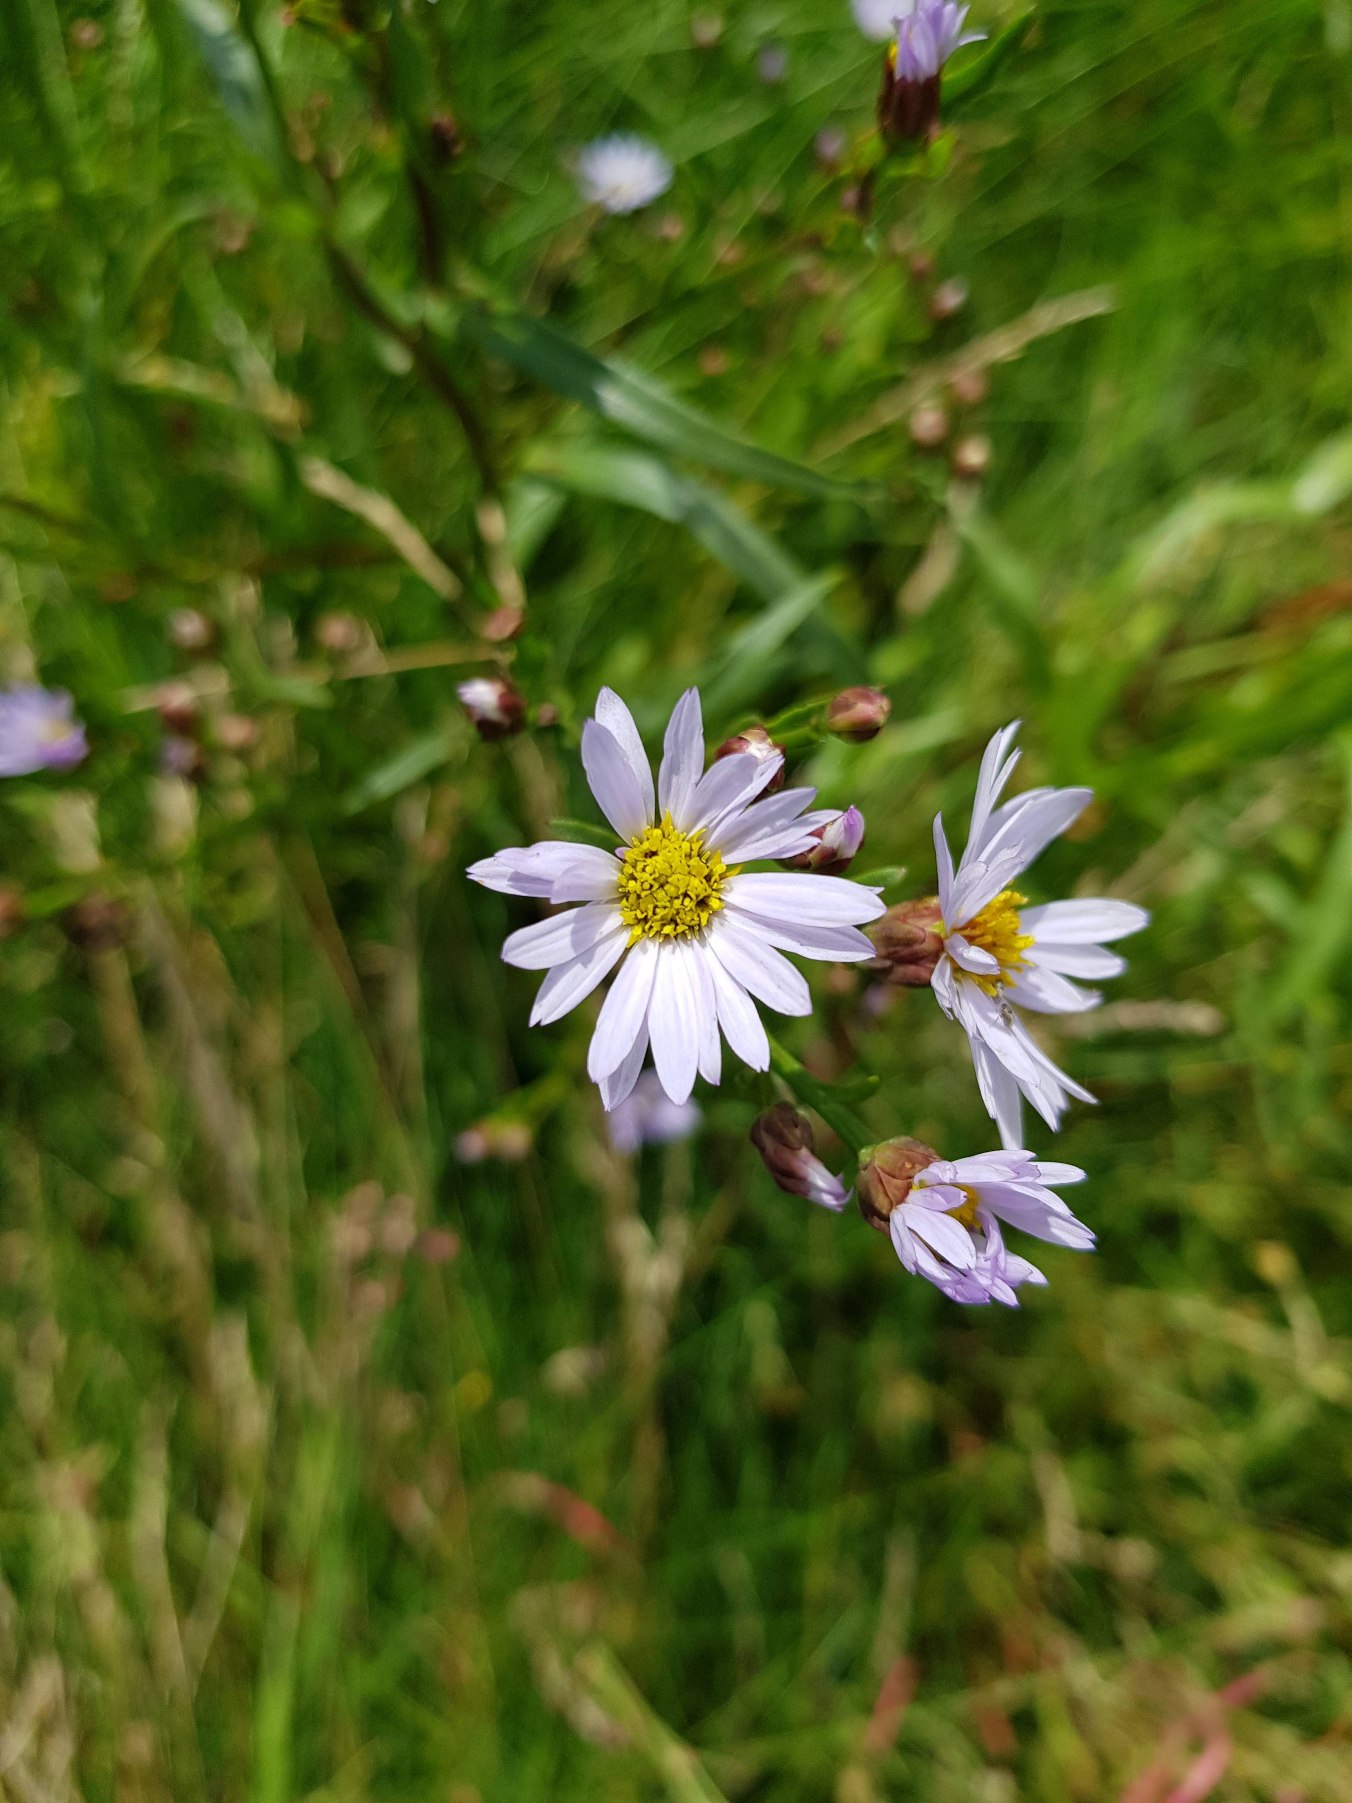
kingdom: Plantae
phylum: Tracheophyta
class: Magnoliopsida
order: Asterales
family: Asteraceae
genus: Tripolium
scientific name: Tripolium pannonicum
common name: Strandasters
